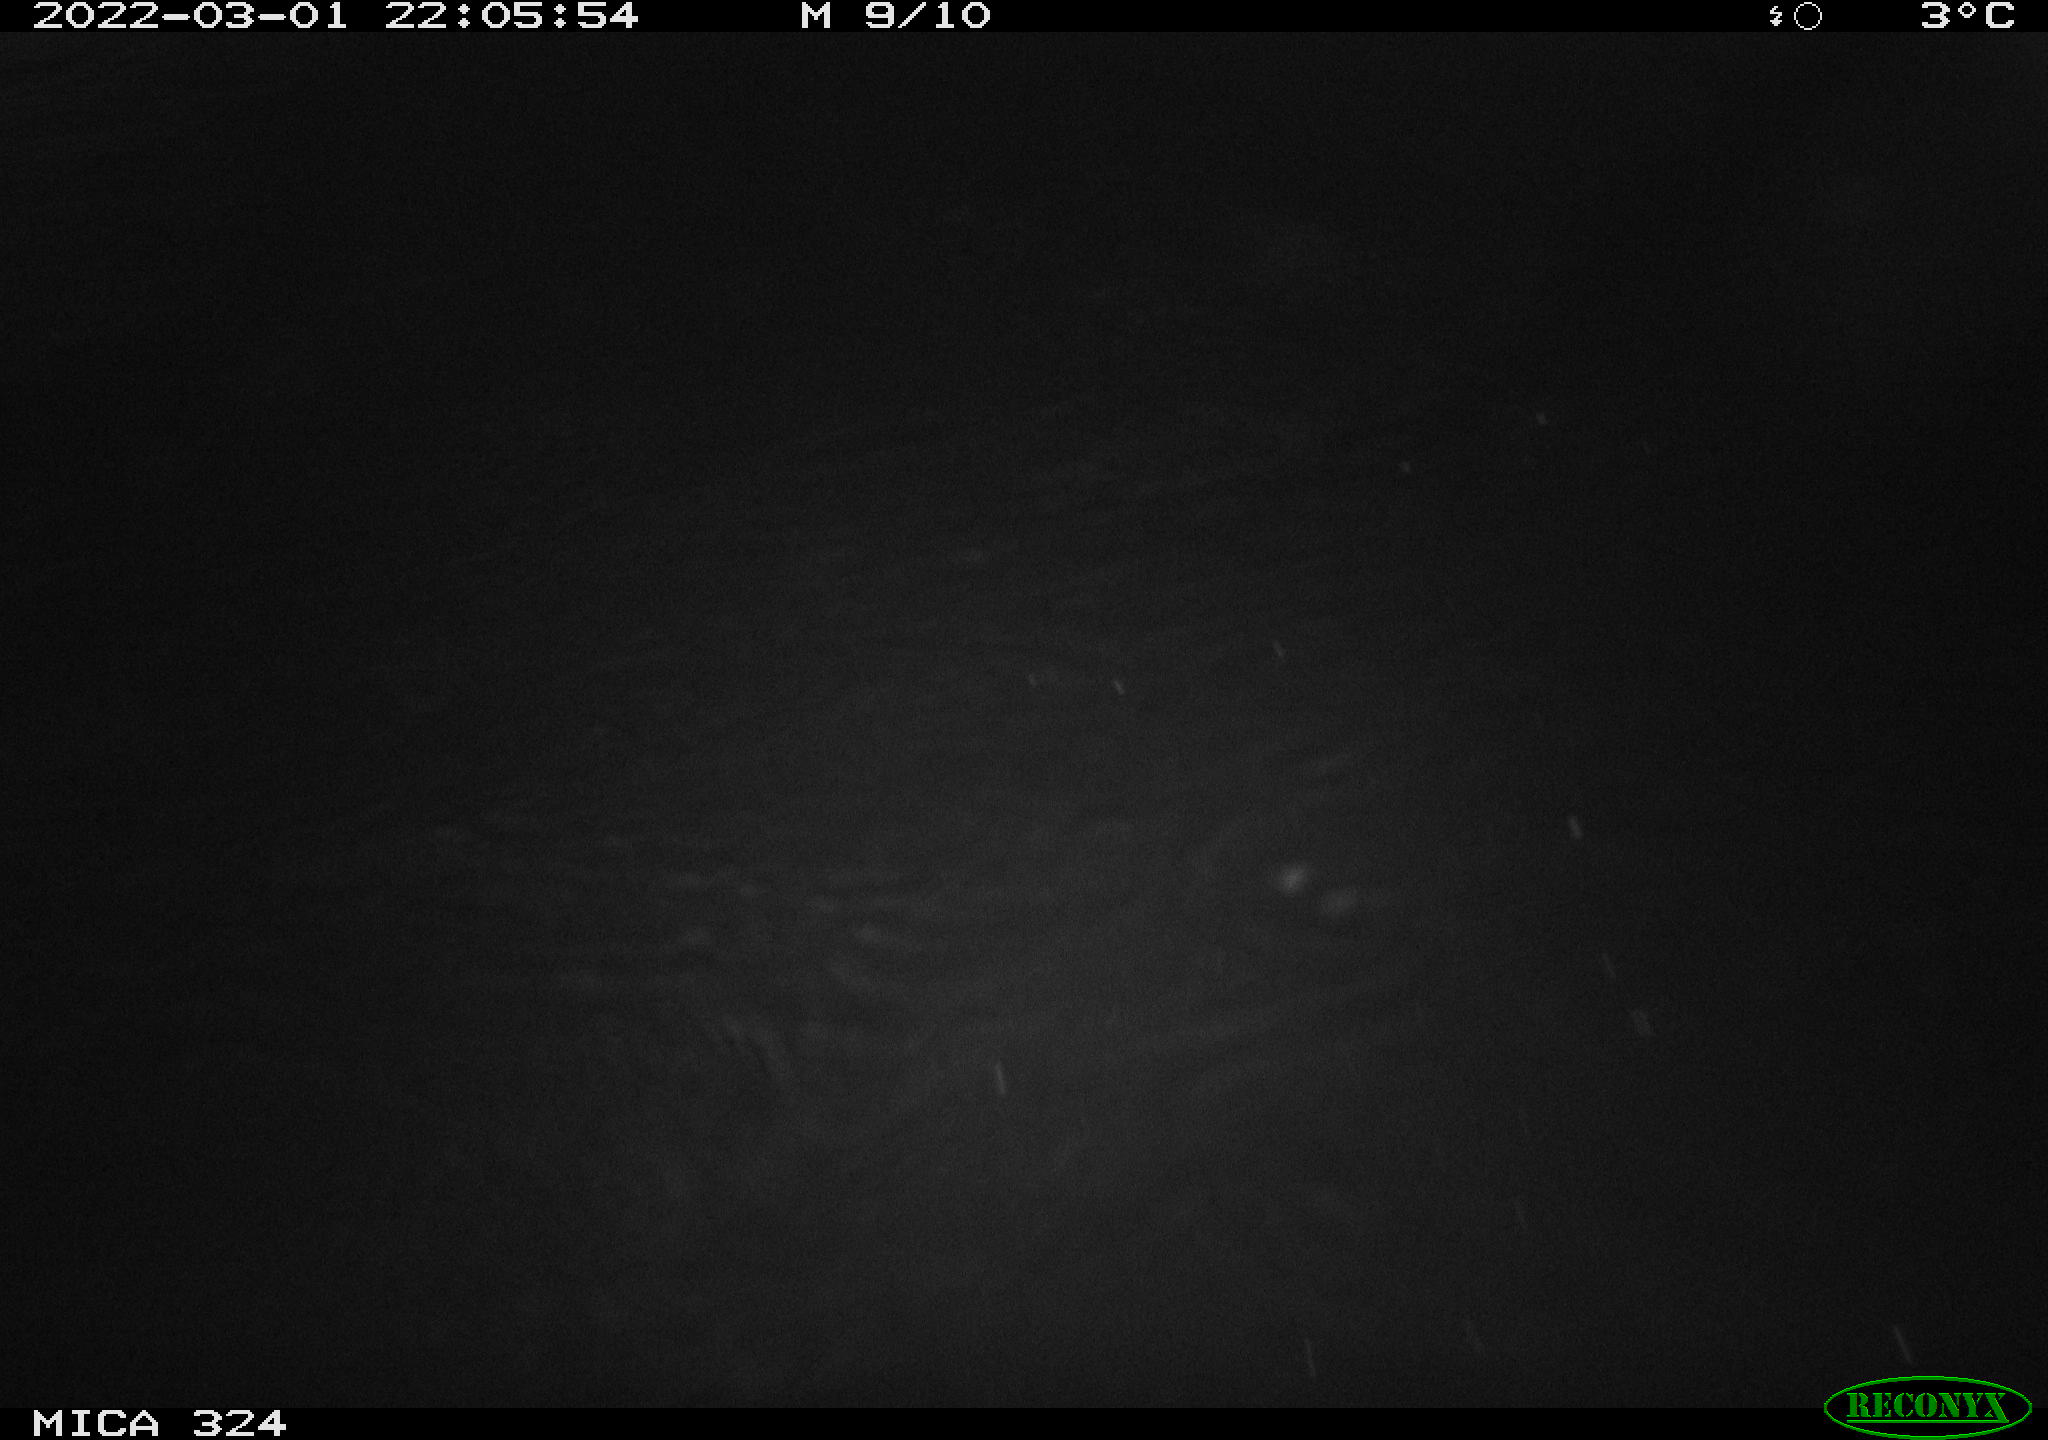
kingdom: Animalia
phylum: Chordata
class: Mammalia
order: Rodentia
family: Muridae
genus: Rattus
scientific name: Rattus norvegicus
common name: Brown rat
